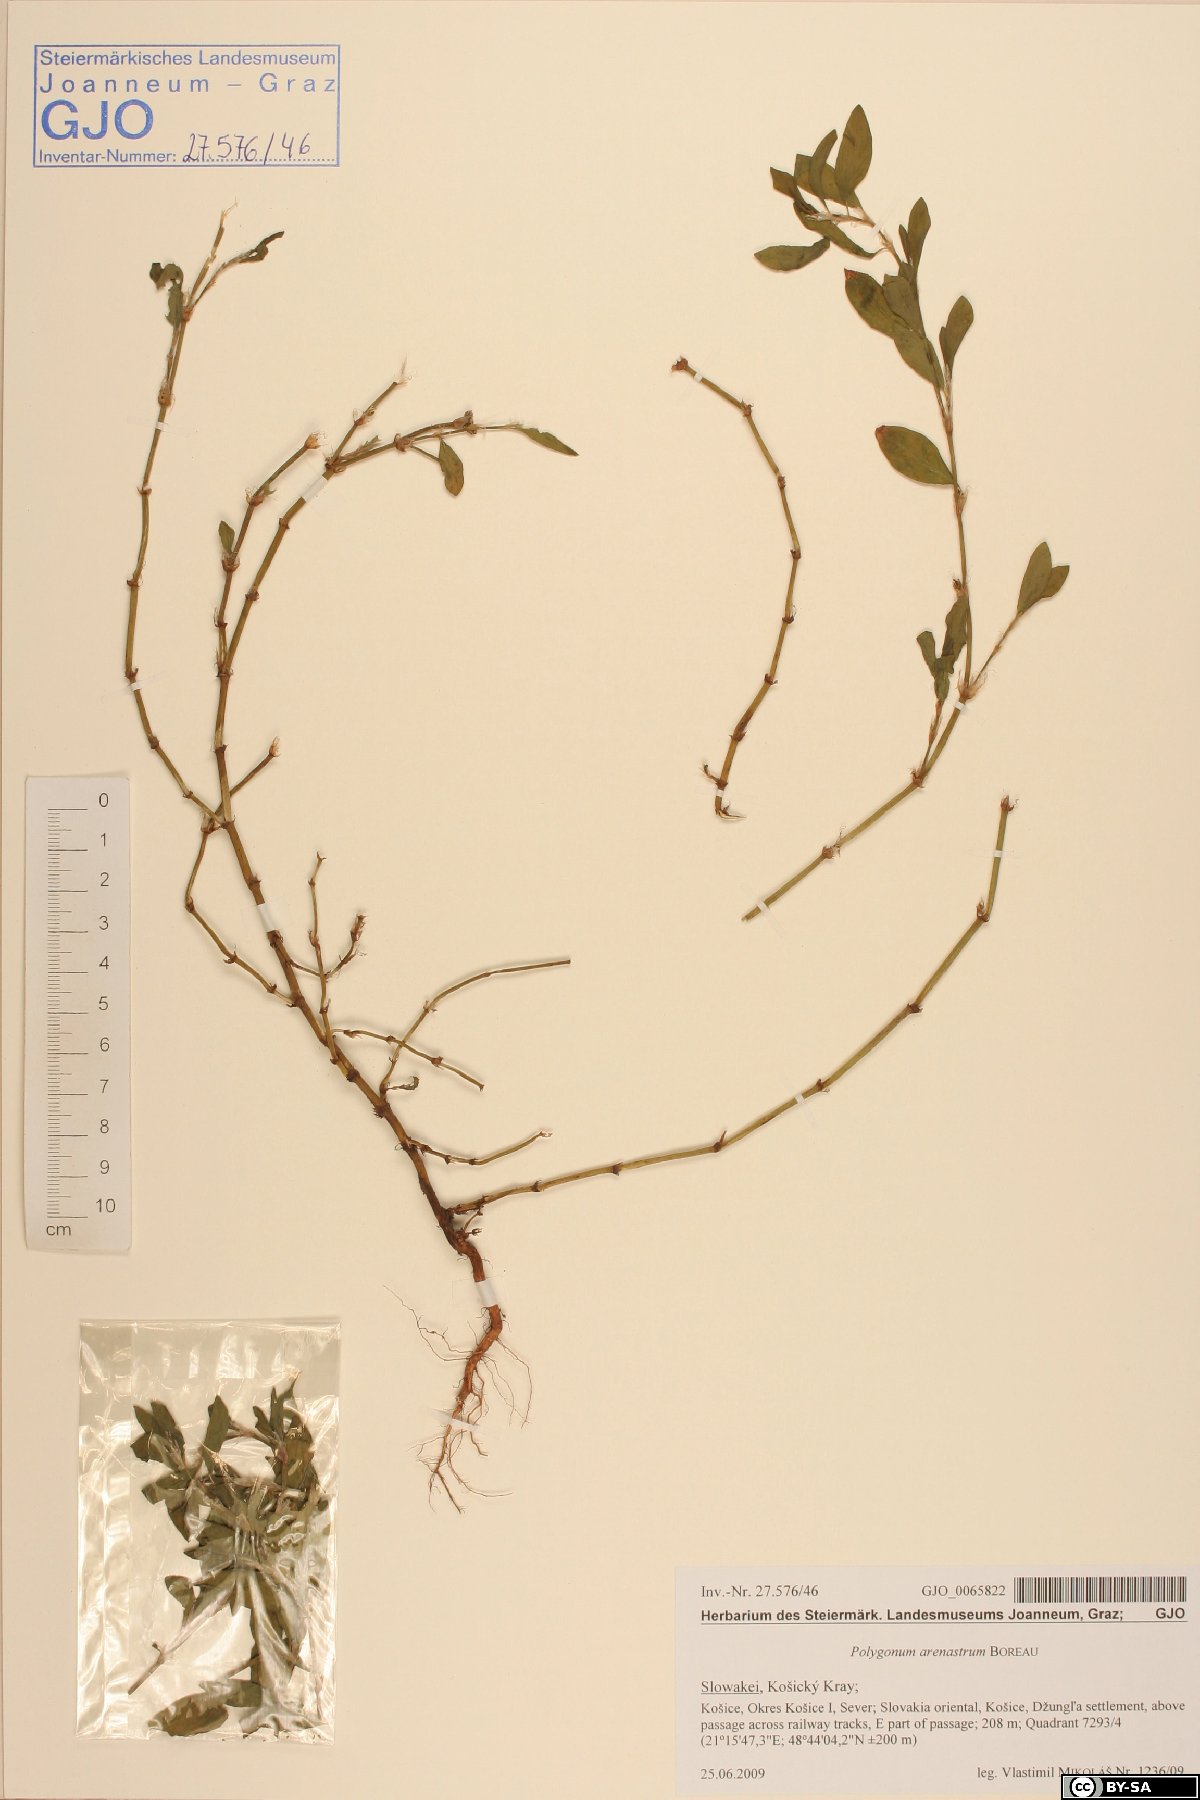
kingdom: Plantae
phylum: Tracheophyta
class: Magnoliopsida
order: Caryophyllales
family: Polygonaceae
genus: Polygonum
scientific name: Polygonum arenastrum
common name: Equal-leaved knotgrass
